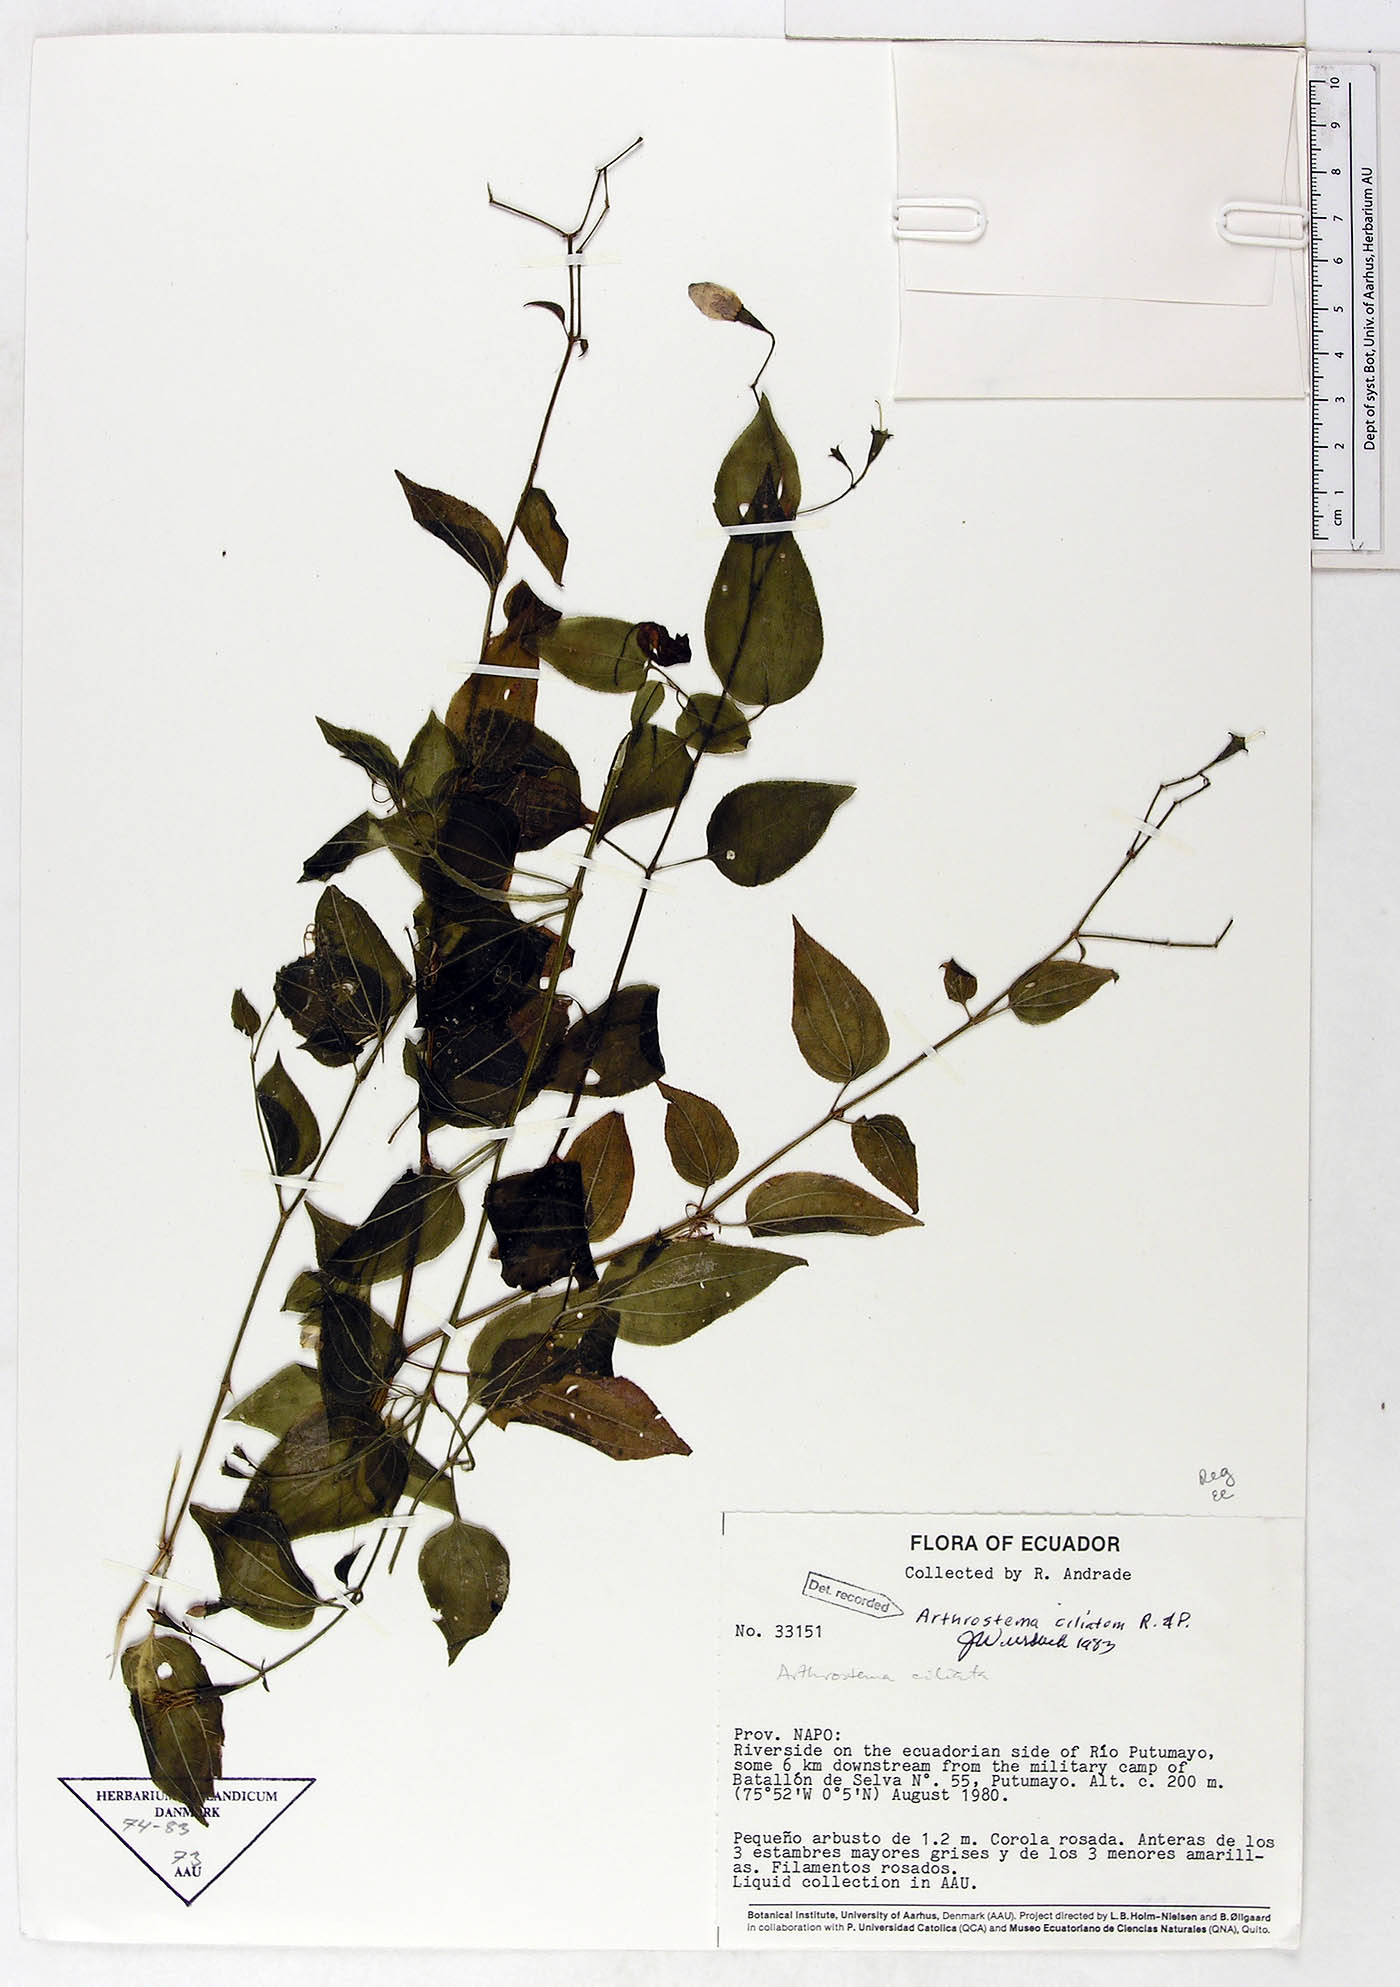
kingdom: Plantae
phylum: Tracheophyta
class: Magnoliopsida
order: Myrtales
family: Melastomataceae
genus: Arthrostemma
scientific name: Arthrostemma ciliatum
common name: Everblooming eavender
